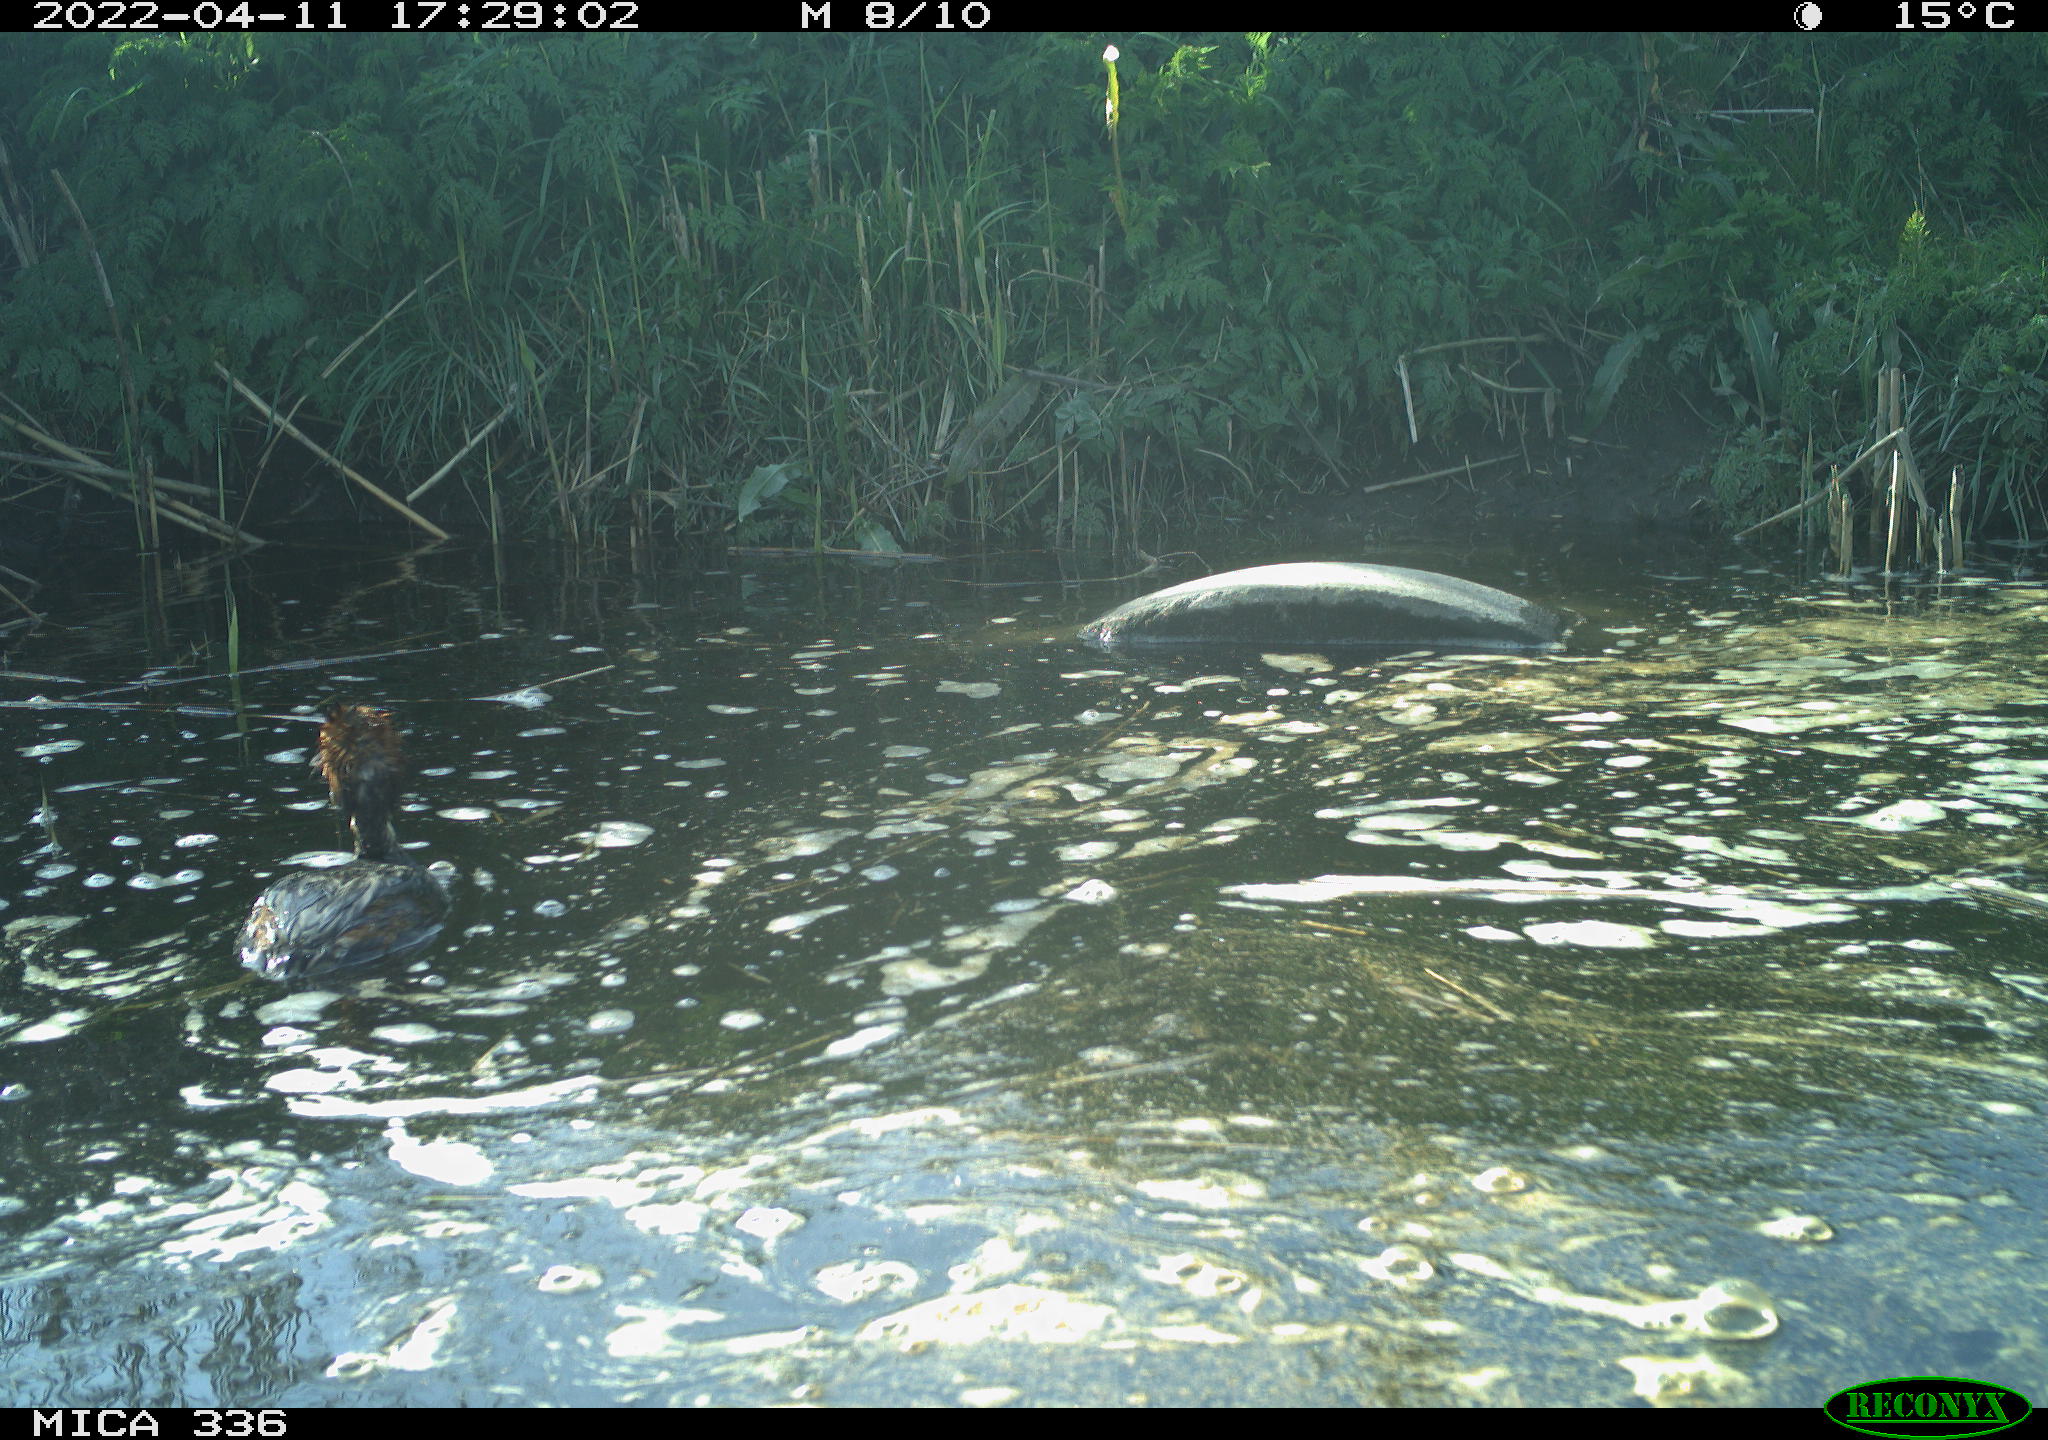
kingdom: Animalia
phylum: Chordata
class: Aves
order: Podicipediformes
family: Podicipedidae
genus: Podiceps
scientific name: Podiceps cristatus
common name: Great crested grebe
